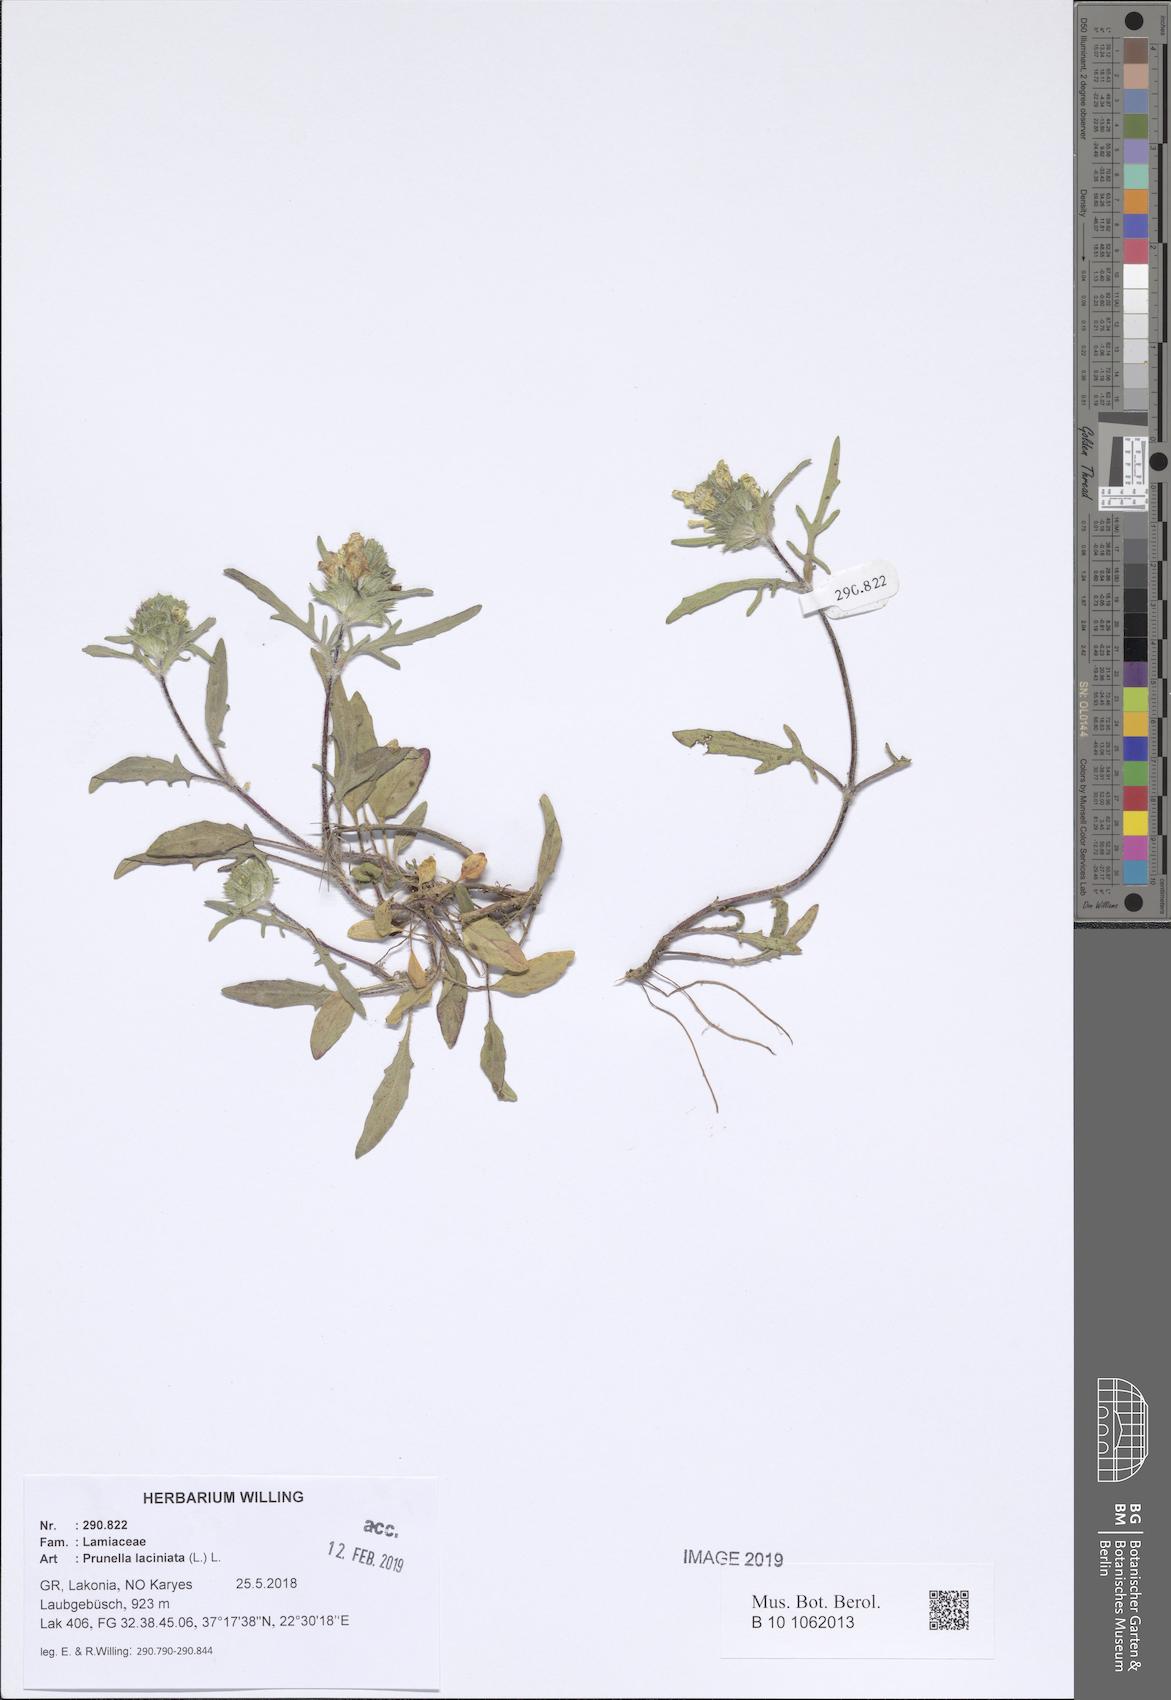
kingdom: Plantae
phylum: Tracheophyta
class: Magnoliopsida
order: Lamiales
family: Lamiaceae
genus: Prunella
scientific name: Prunella laciniata
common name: Cut-leaved selfheal
